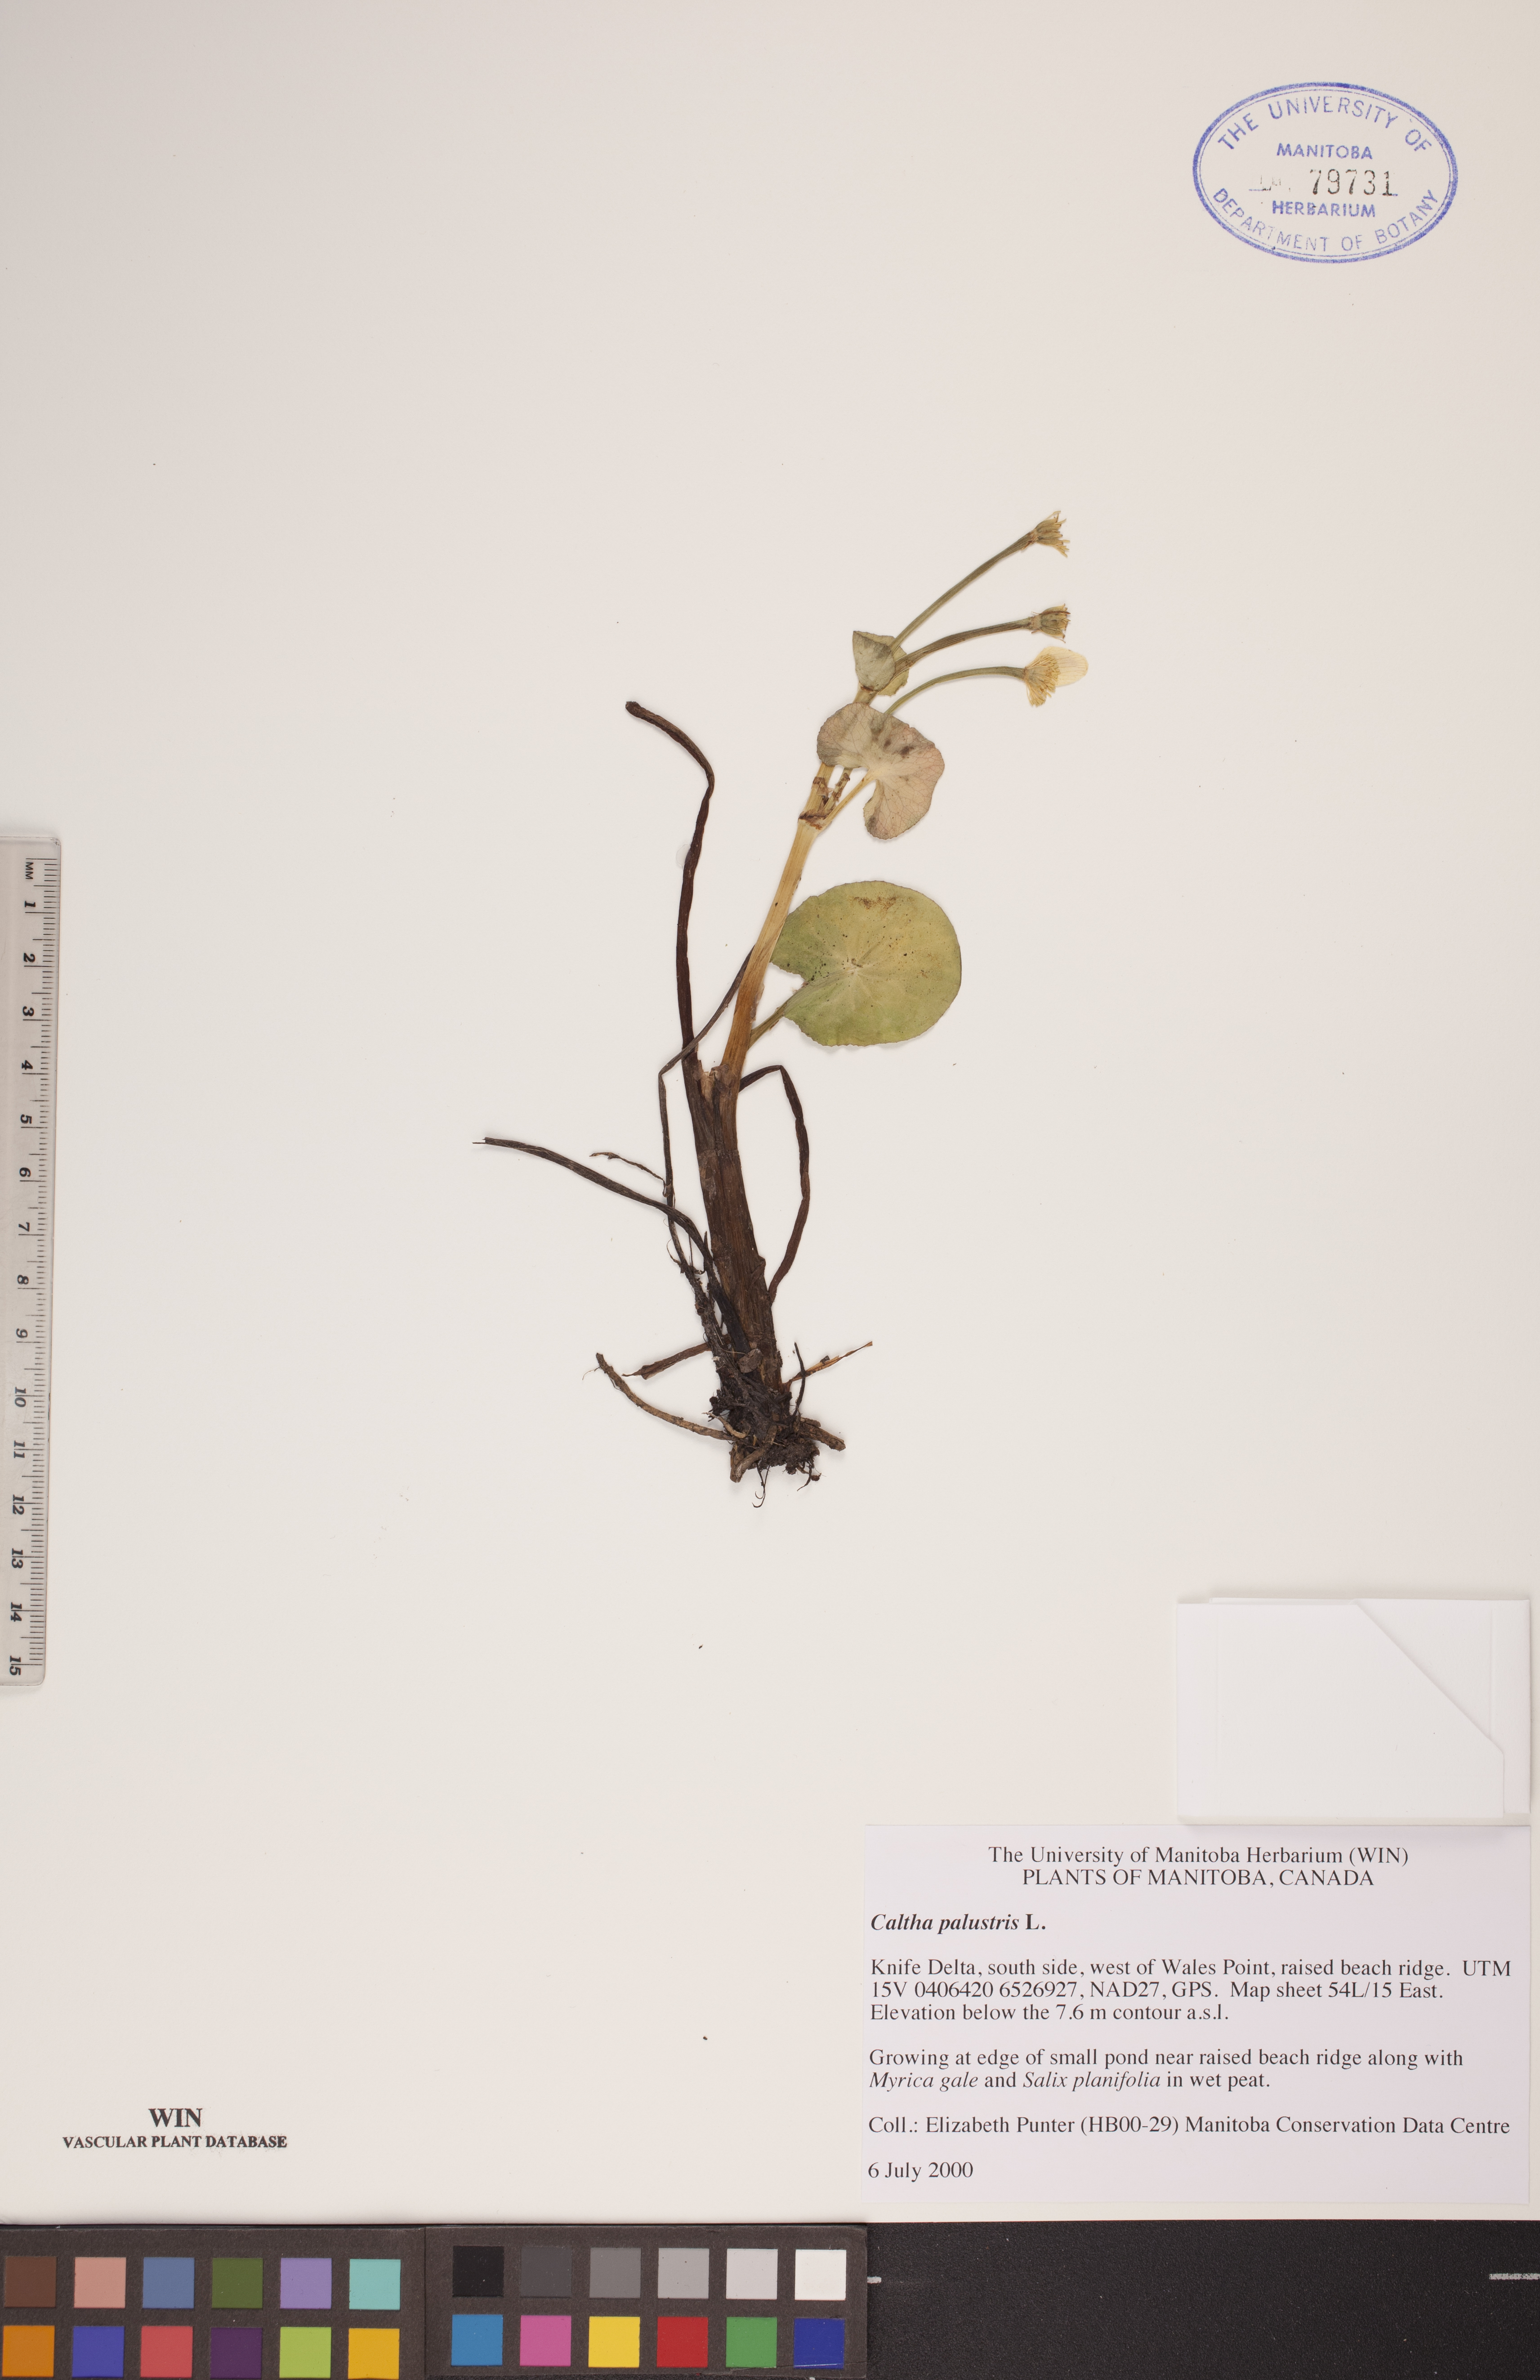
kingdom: Plantae
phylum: Tracheophyta
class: Magnoliopsida
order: Ranunculales
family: Ranunculaceae
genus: Caltha
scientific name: Caltha palustris
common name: Marsh marigold
